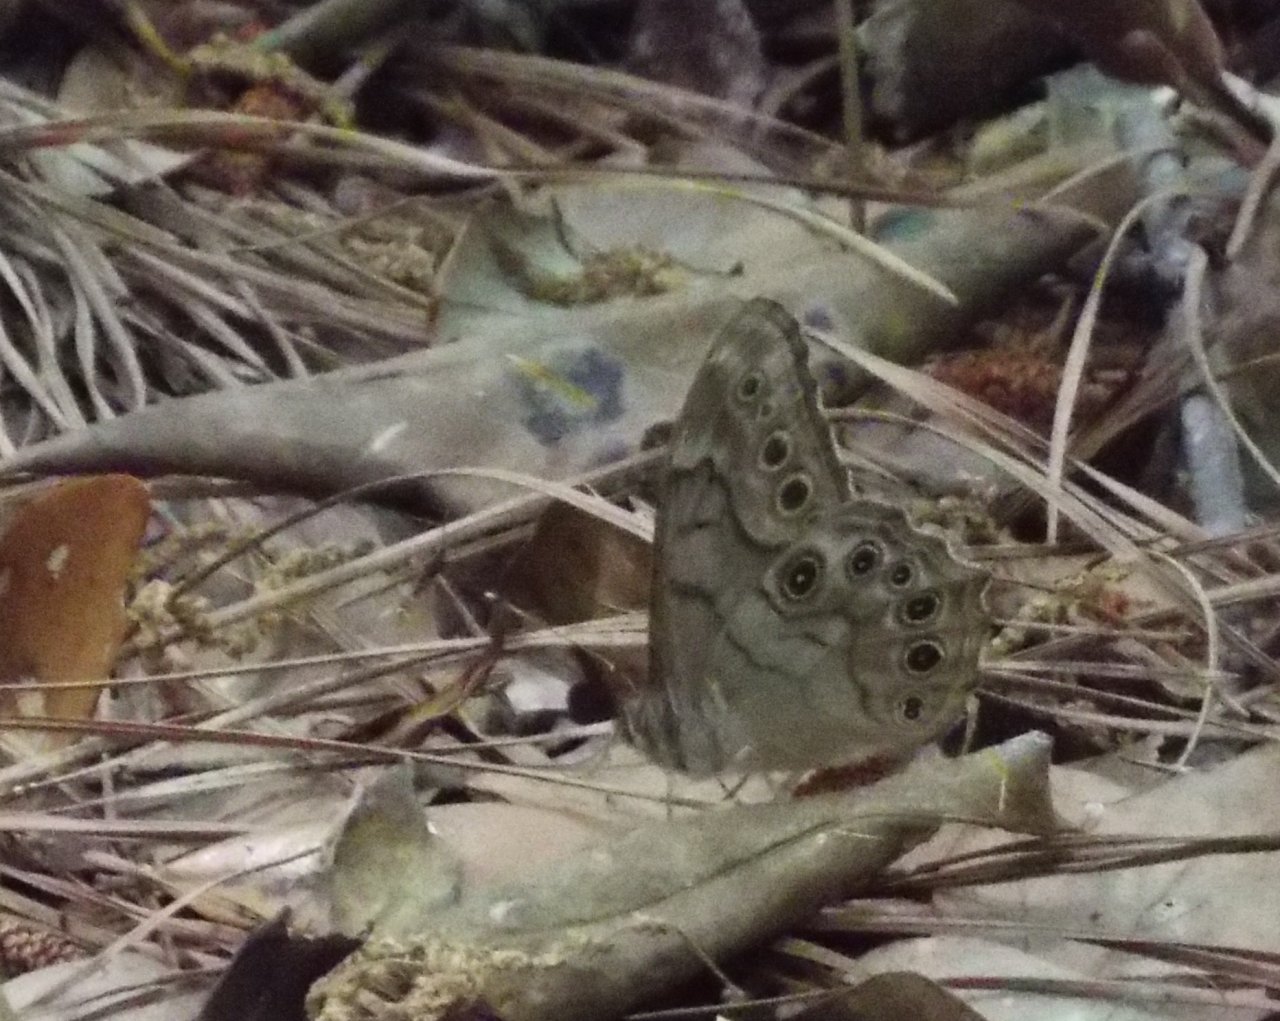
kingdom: Animalia
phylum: Arthropoda
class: Insecta
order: Lepidoptera
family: Nymphalidae
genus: Lethe
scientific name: Lethe creola
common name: Creole Pearly-Eye
